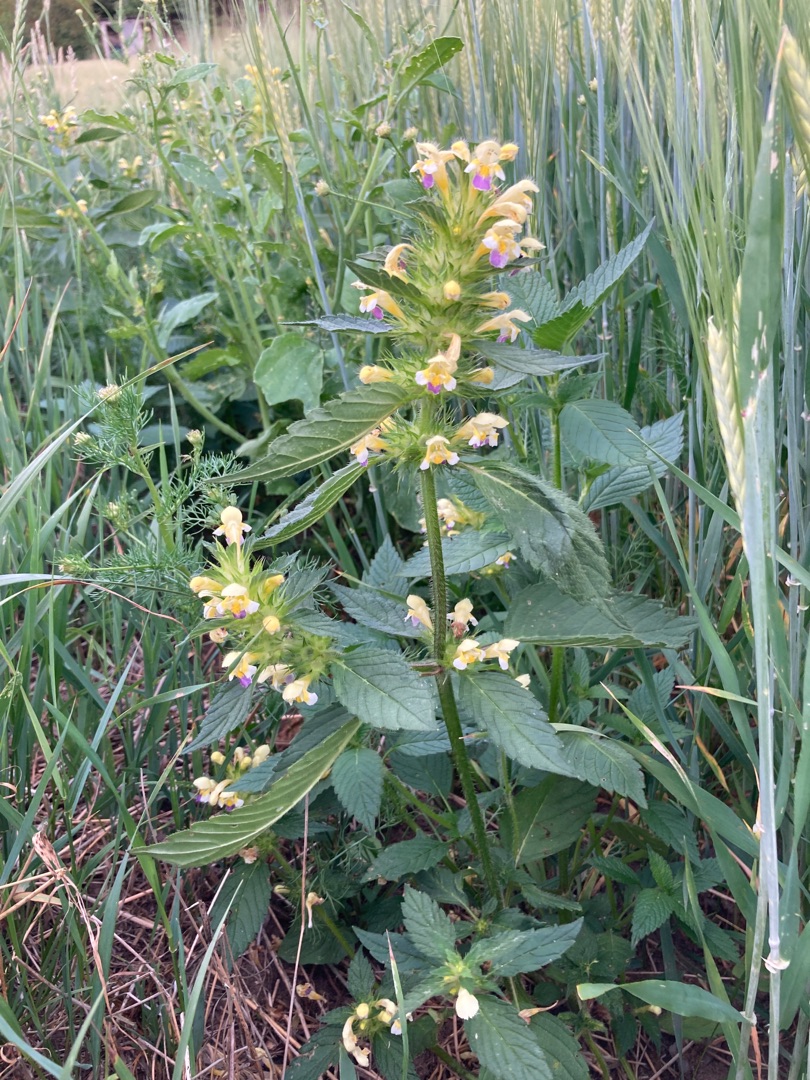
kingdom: Plantae
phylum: Tracheophyta
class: Magnoliopsida
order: Lamiales
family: Lamiaceae
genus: Galeopsis
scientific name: Galeopsis speciosa
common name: Hamp-hanekro
